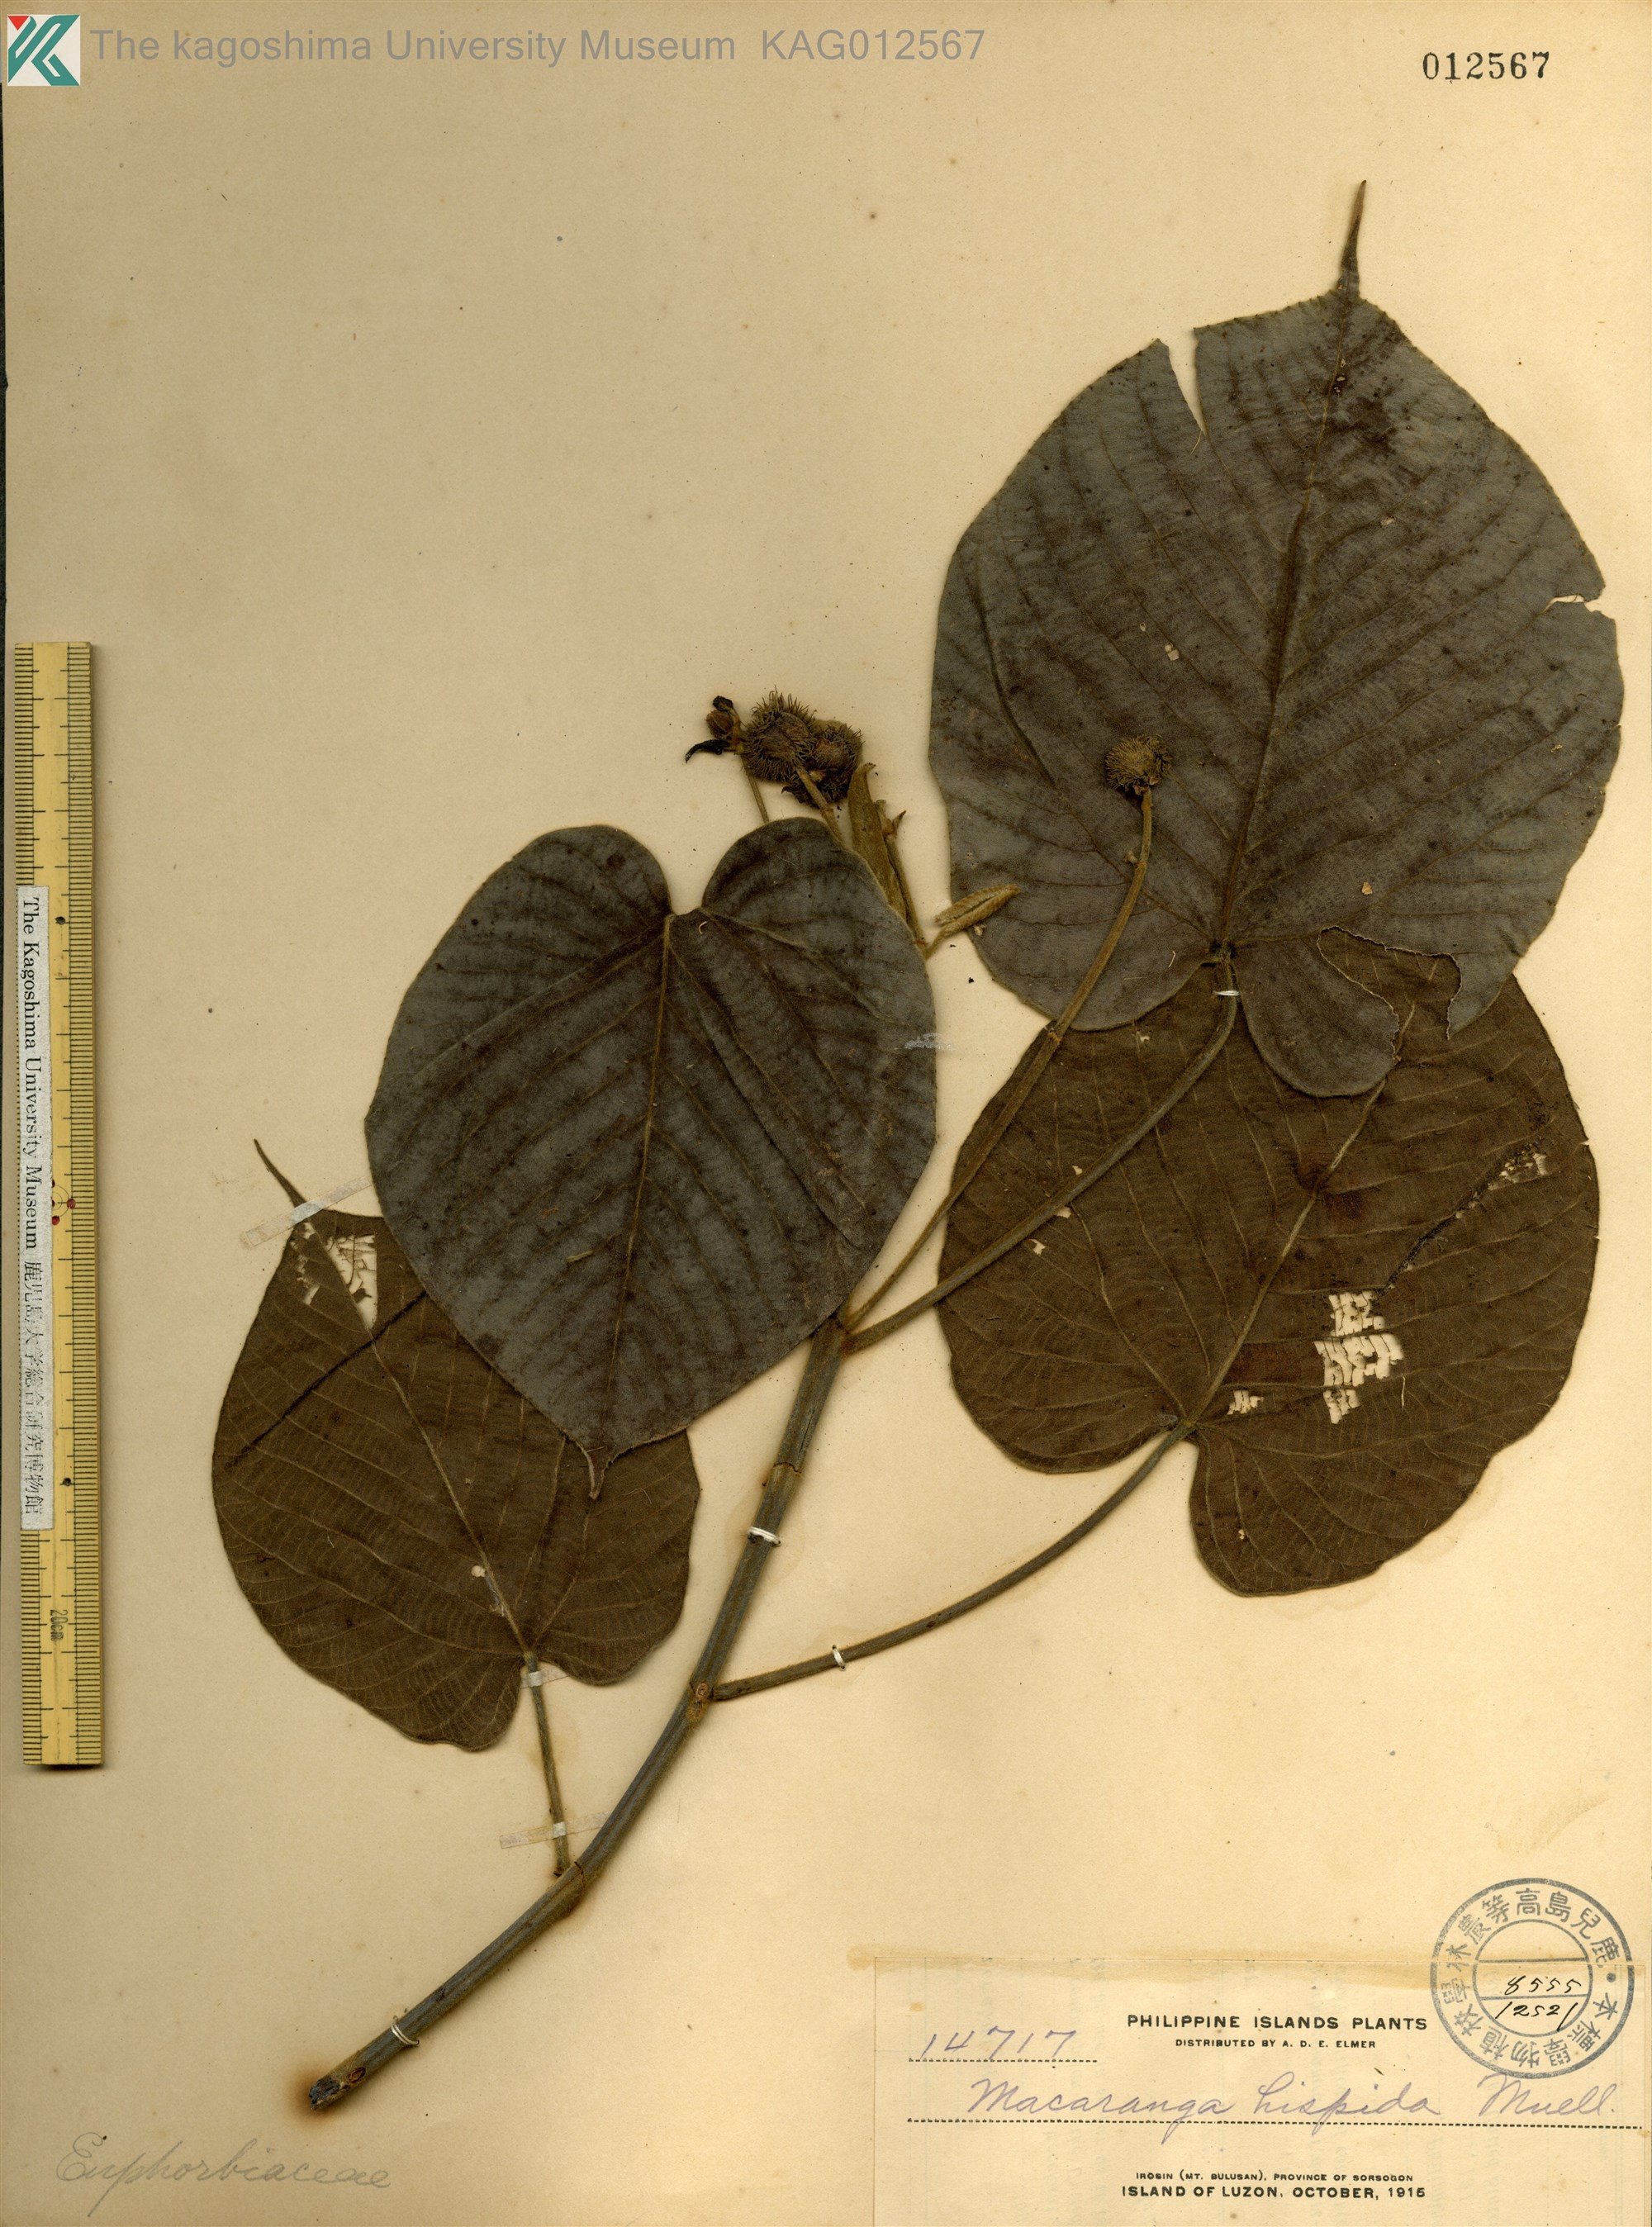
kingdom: Plantae
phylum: Tracheophyta
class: Magnoliopsida
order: Malpighiales
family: Euphorbiaceae
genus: Macaranga
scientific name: Macaranga hispida
